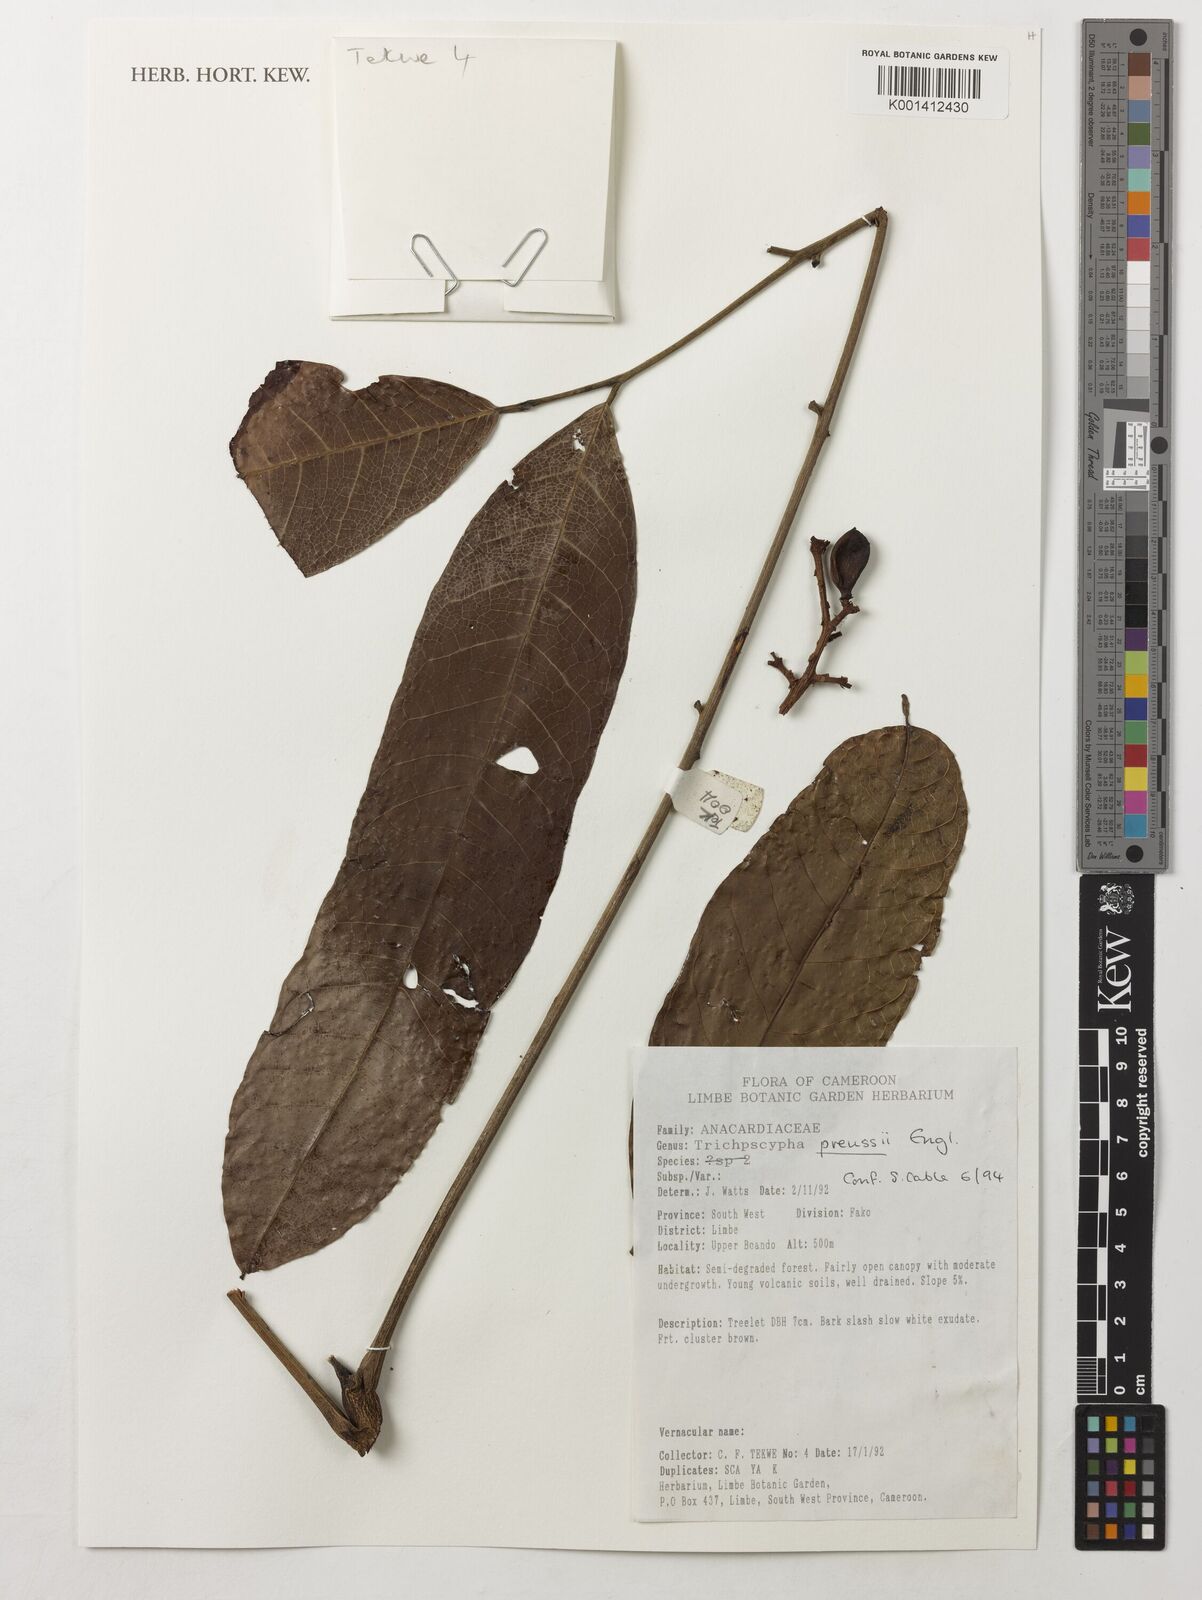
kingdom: Plantae
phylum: Tracheophyta
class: Magnoliopsida
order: Sapindales
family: Anacardiaceae
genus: Trichoscypha
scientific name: Trichoscypha bijuga
